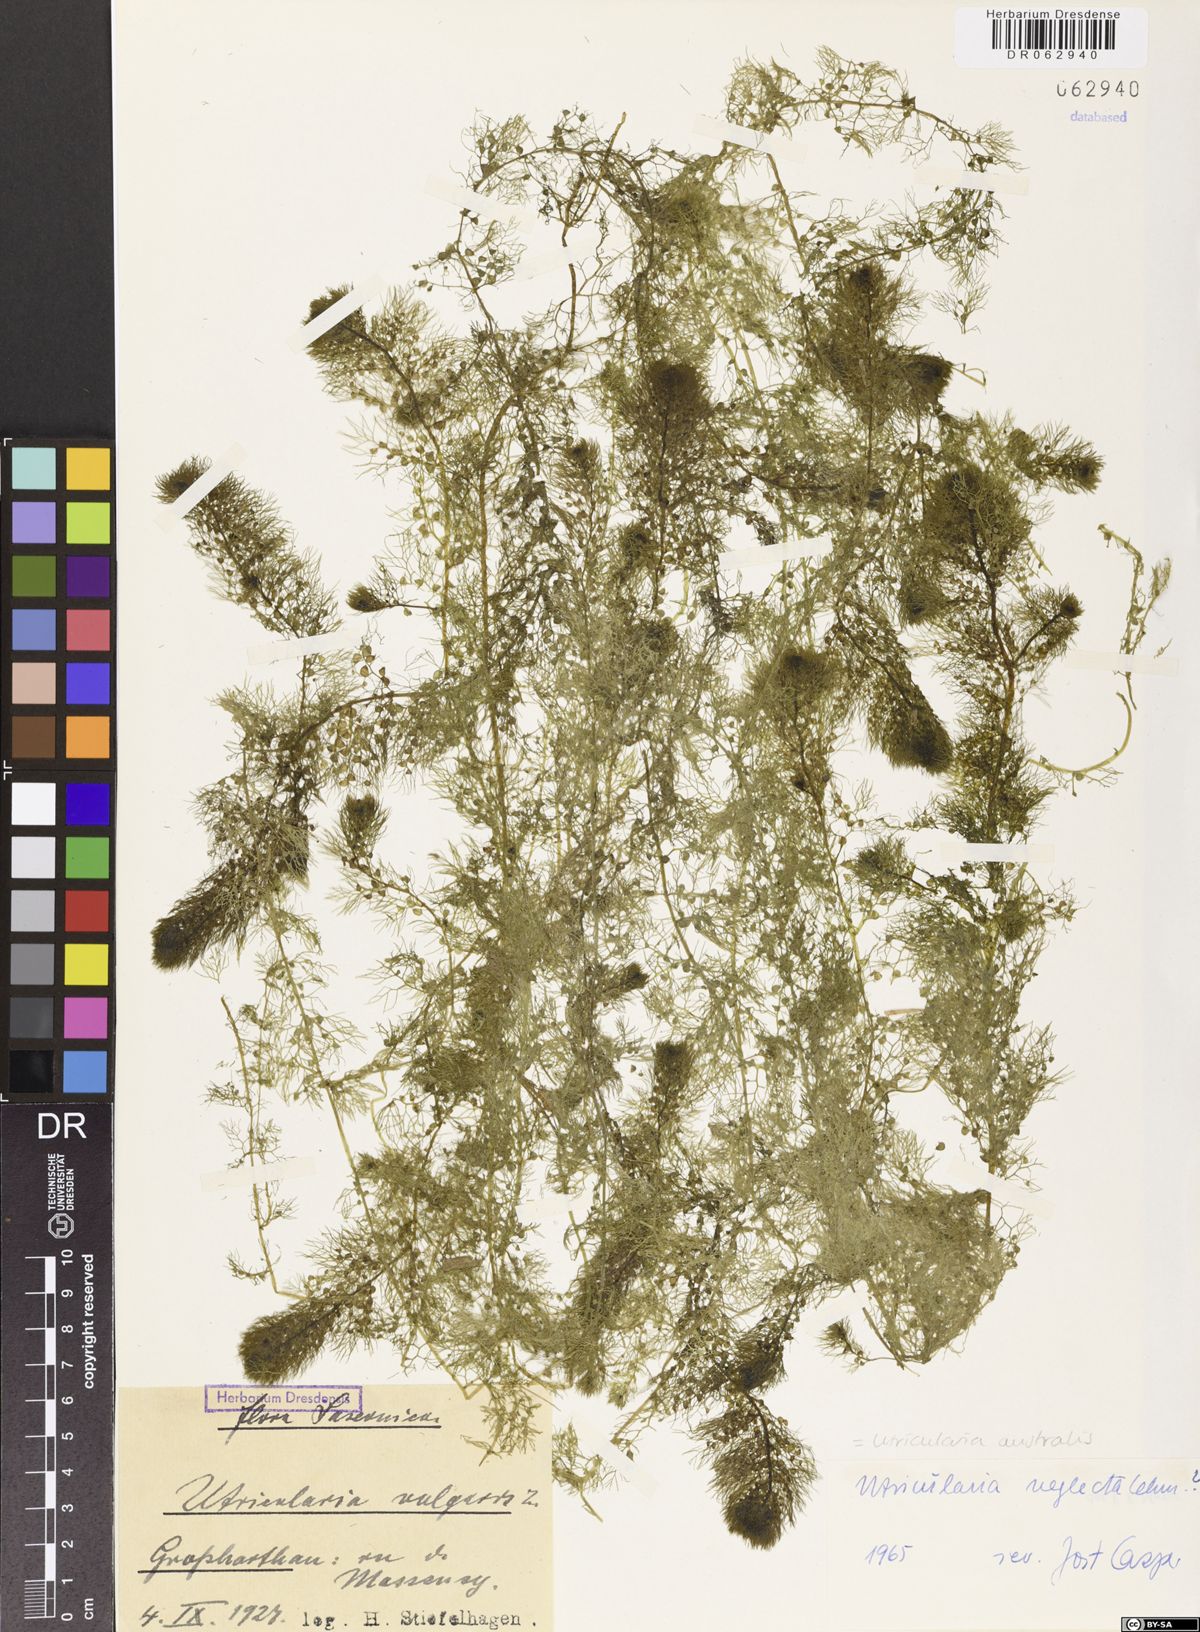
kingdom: Plantae
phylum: Tracheophyta
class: Magnoliopsida
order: Lamiales
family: Lentibulariaceae
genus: Utricularia
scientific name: Utricularia australis
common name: Bladderwort
